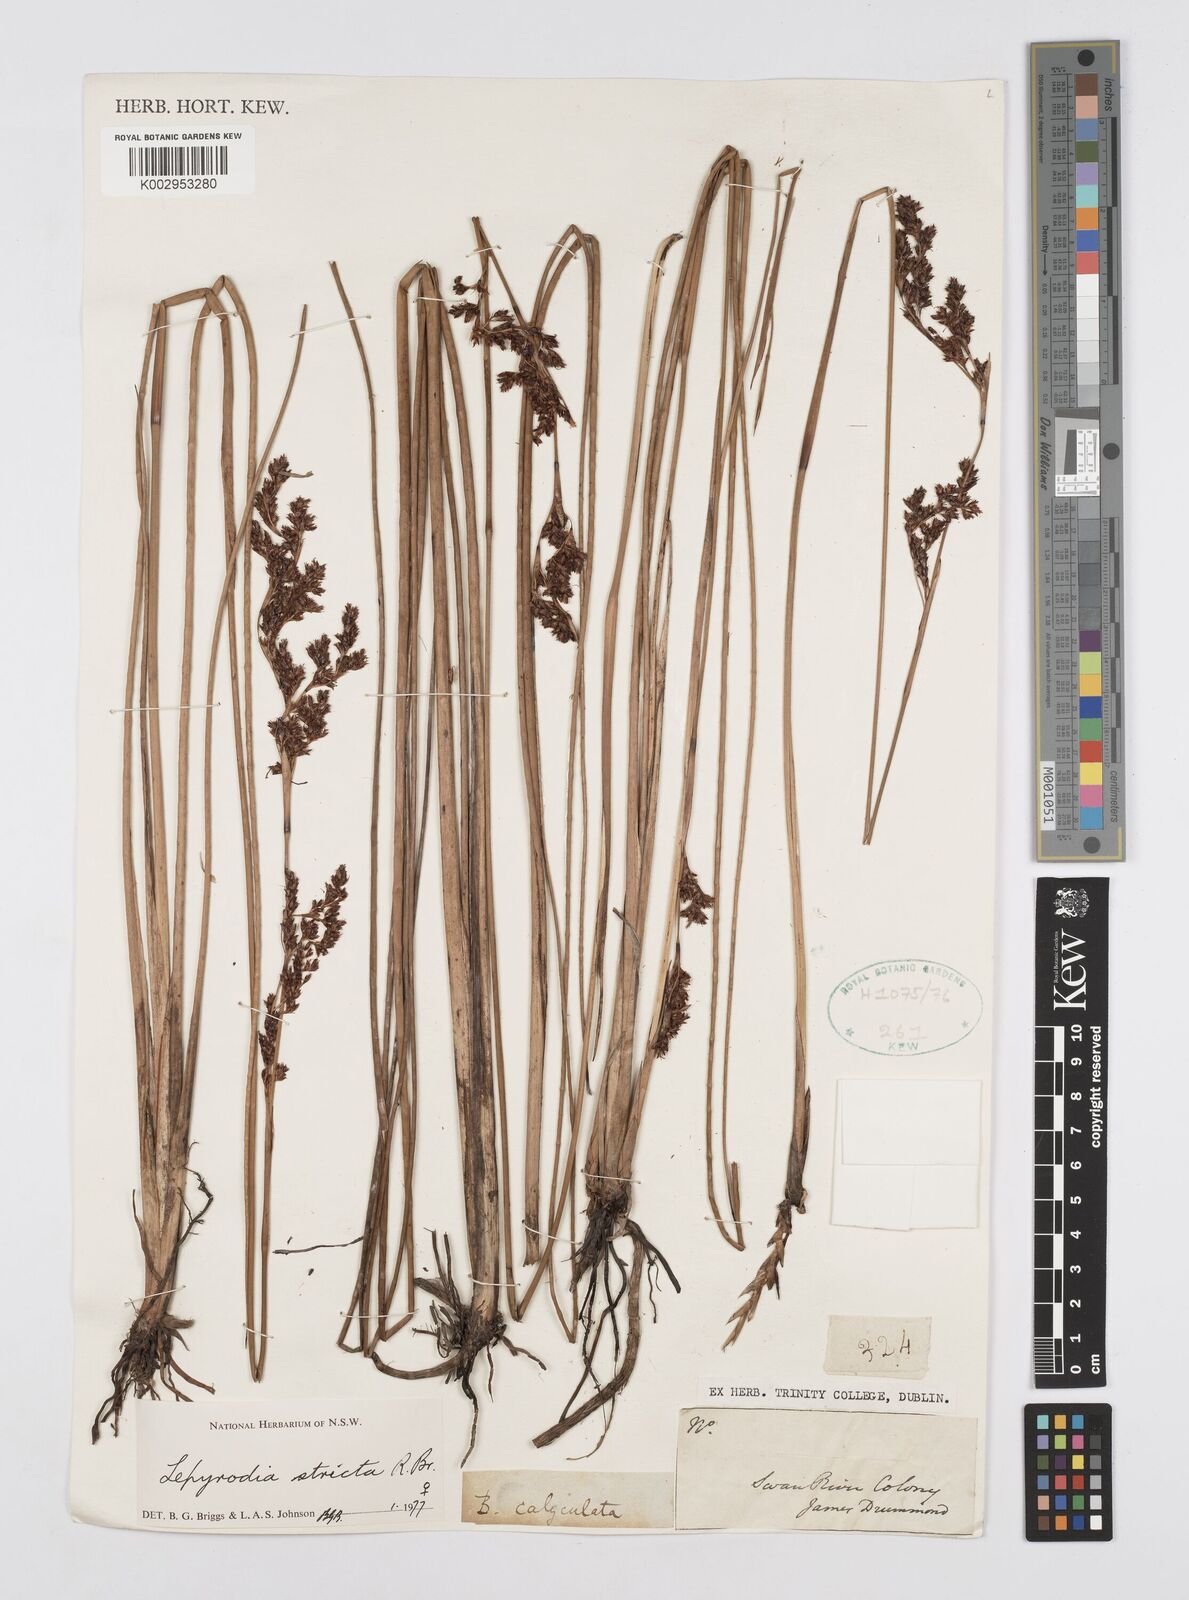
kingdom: Plantae
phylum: Tracheophyta
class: Liliopsida
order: Poales
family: Restionaceae
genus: Sporadanthus
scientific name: Sporadanthus strictus
